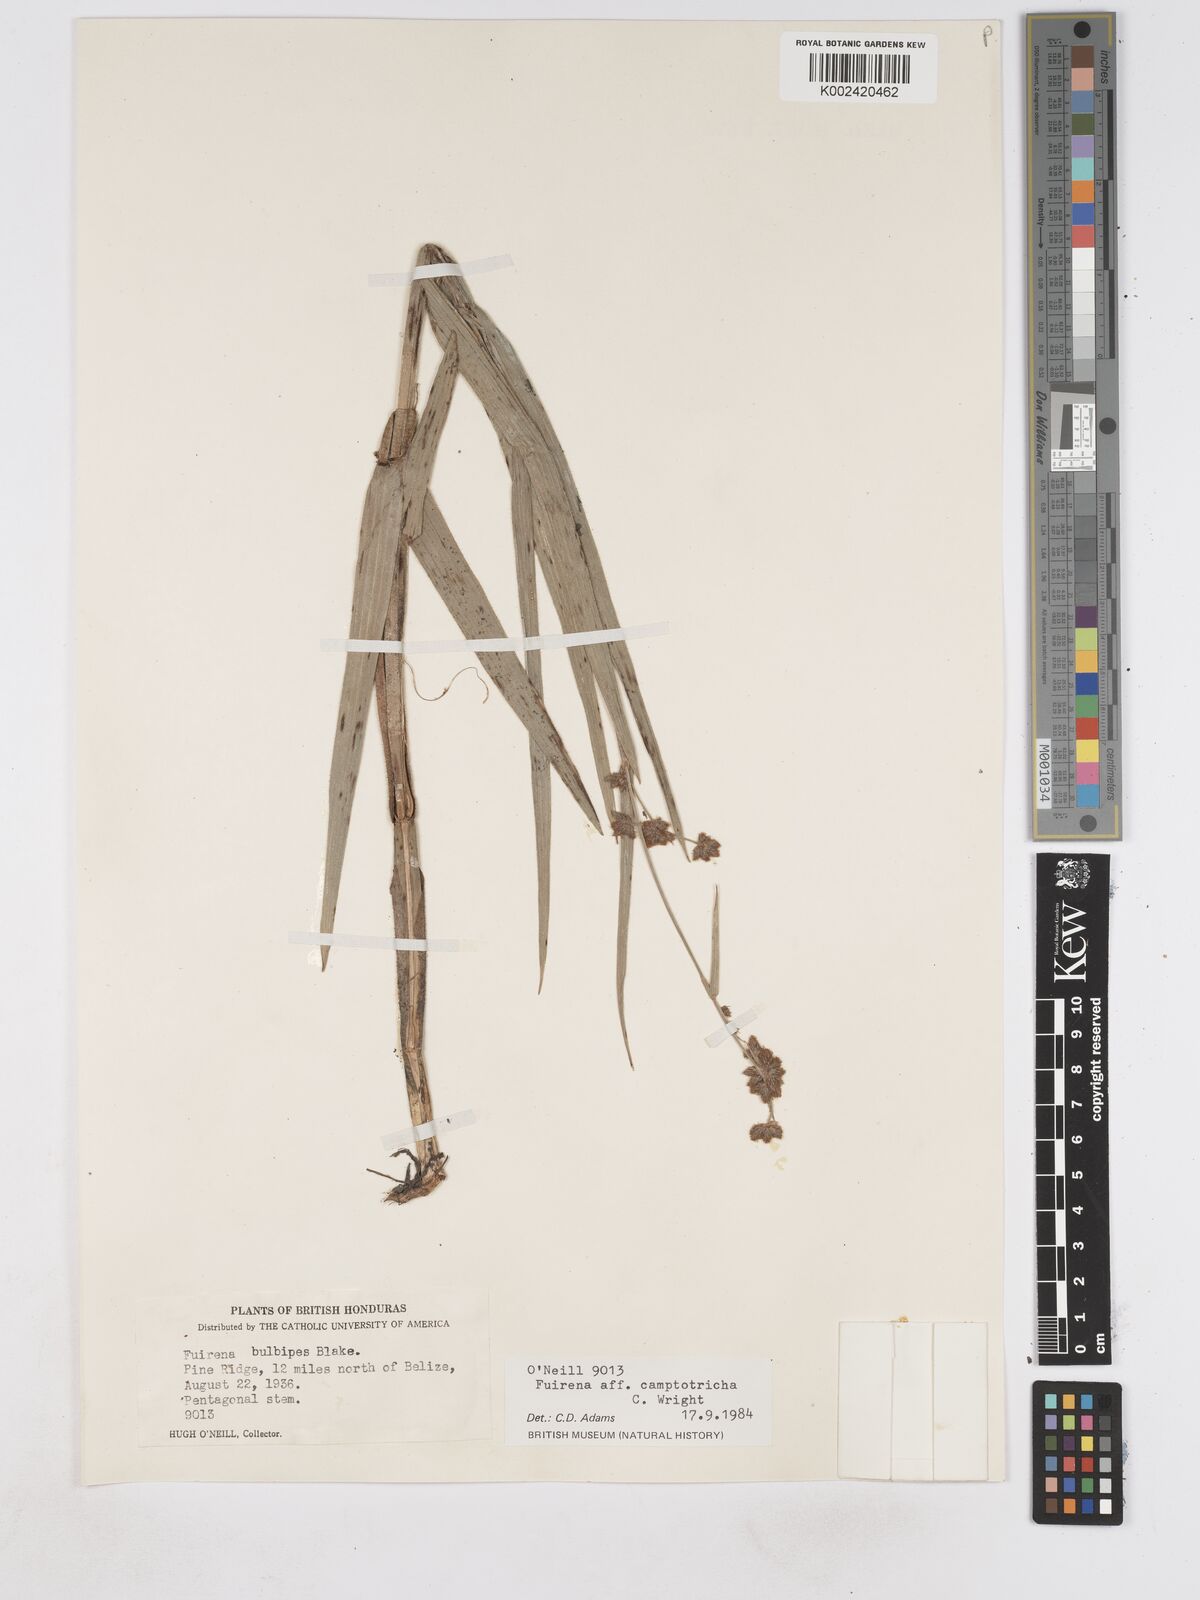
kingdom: Plantae
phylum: Tracheophyta
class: Liliopsida
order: Poales
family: Cyperaceae
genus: Fuirena
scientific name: Fuirena camptotricha
